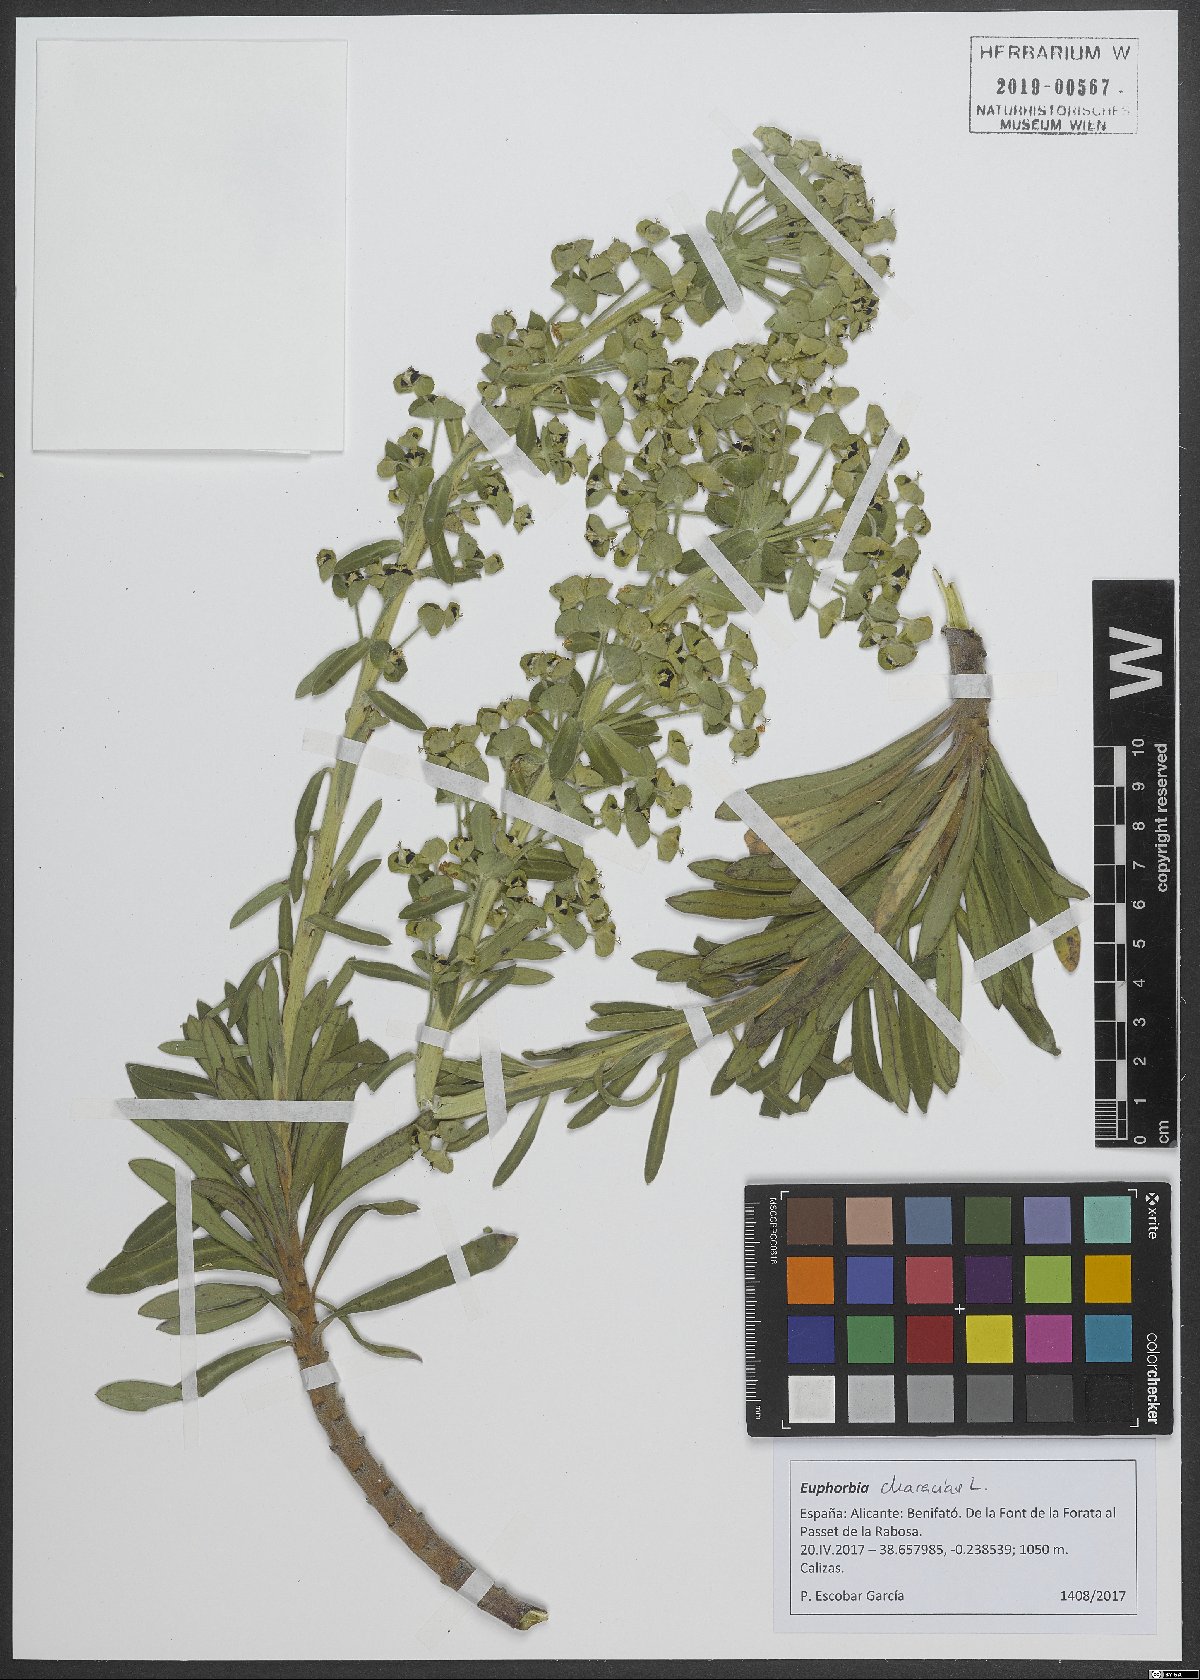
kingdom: Plantae
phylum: Tracheophyta
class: Magnoliopsida
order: Malpighiales
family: Euphorbiaceae
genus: Euphorbia
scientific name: Euphorbia characias
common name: Mediterranean spurge
